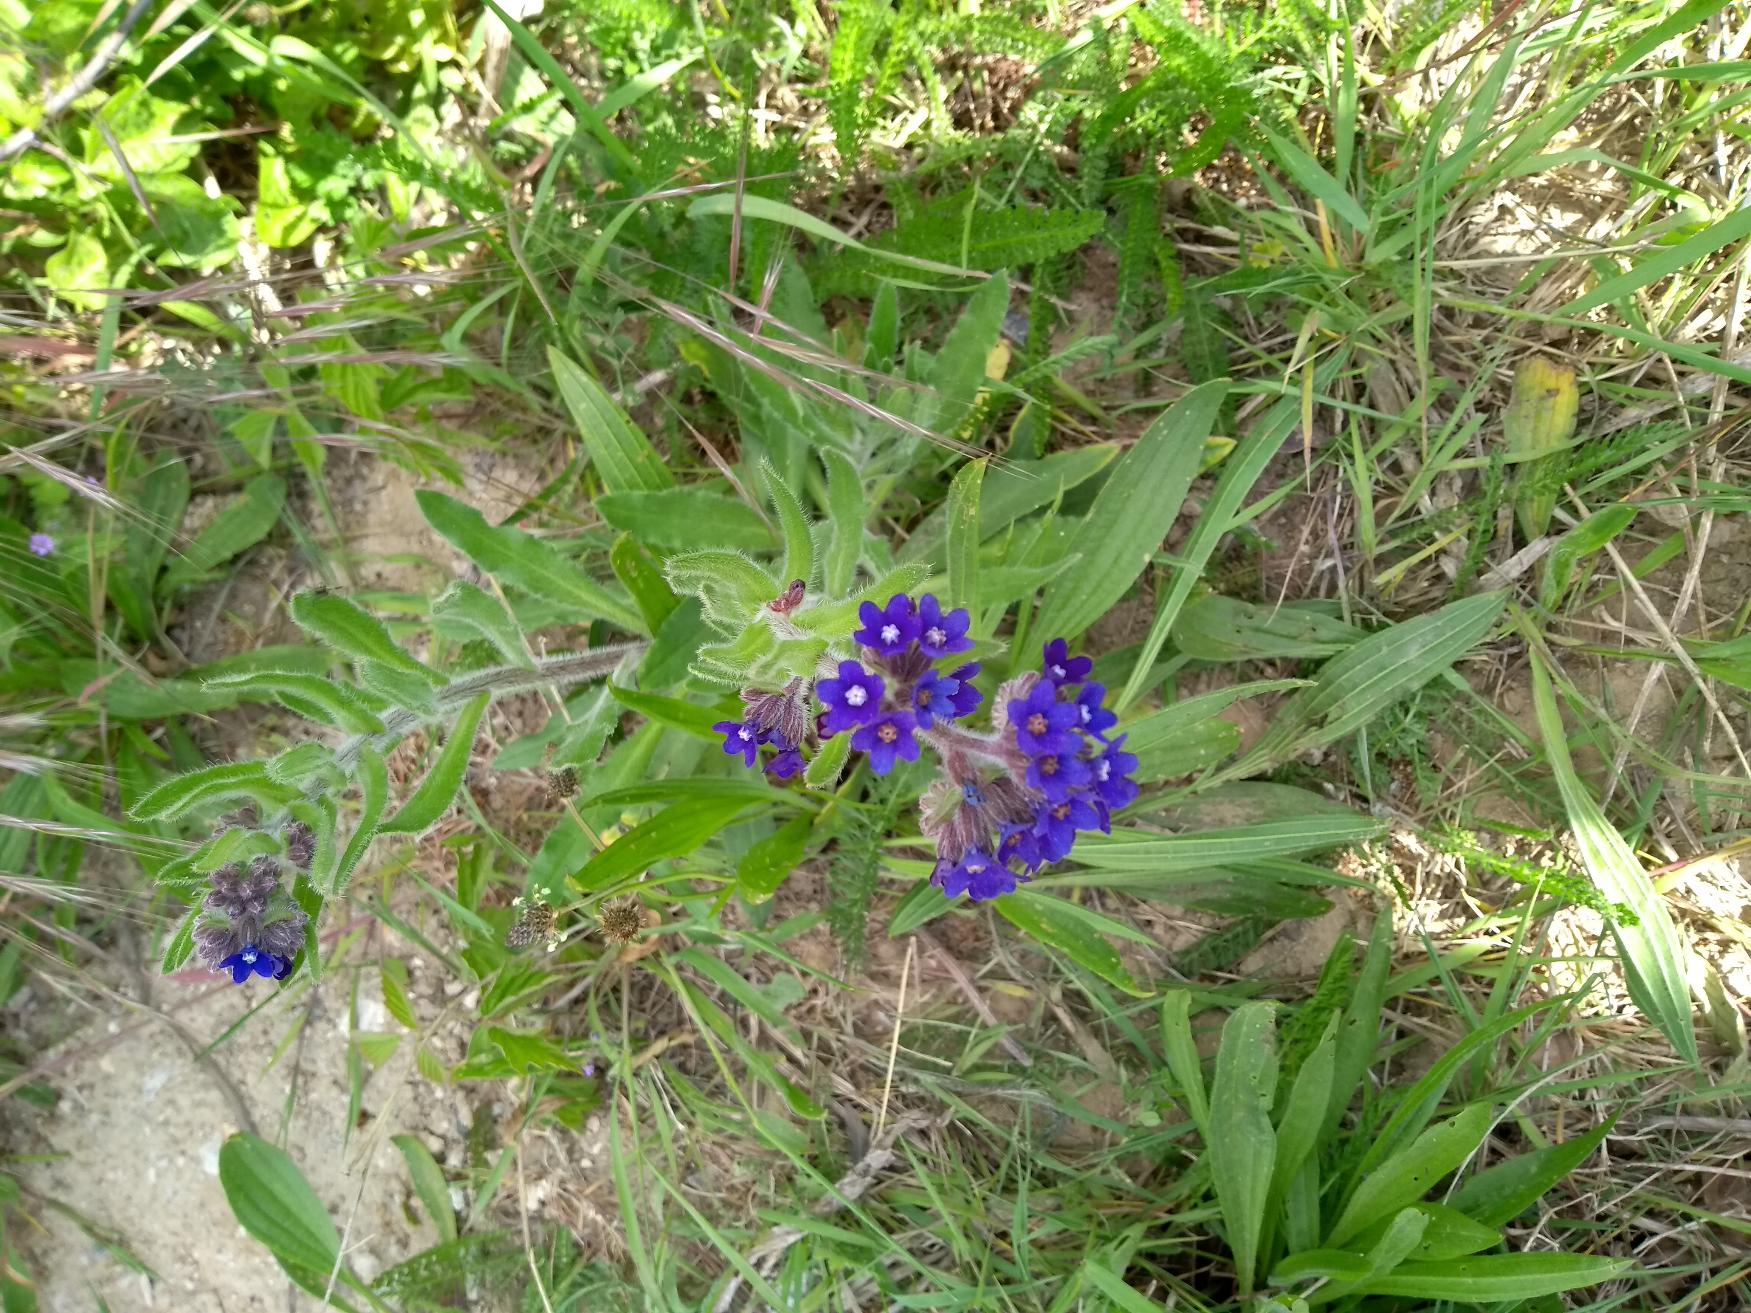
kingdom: Plantae
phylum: Tracheophyta
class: Magnoliopsida
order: Boraginales
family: Boraginaceae
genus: Anchusa
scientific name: Anchusa officinalis
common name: Læge-oksetunge
